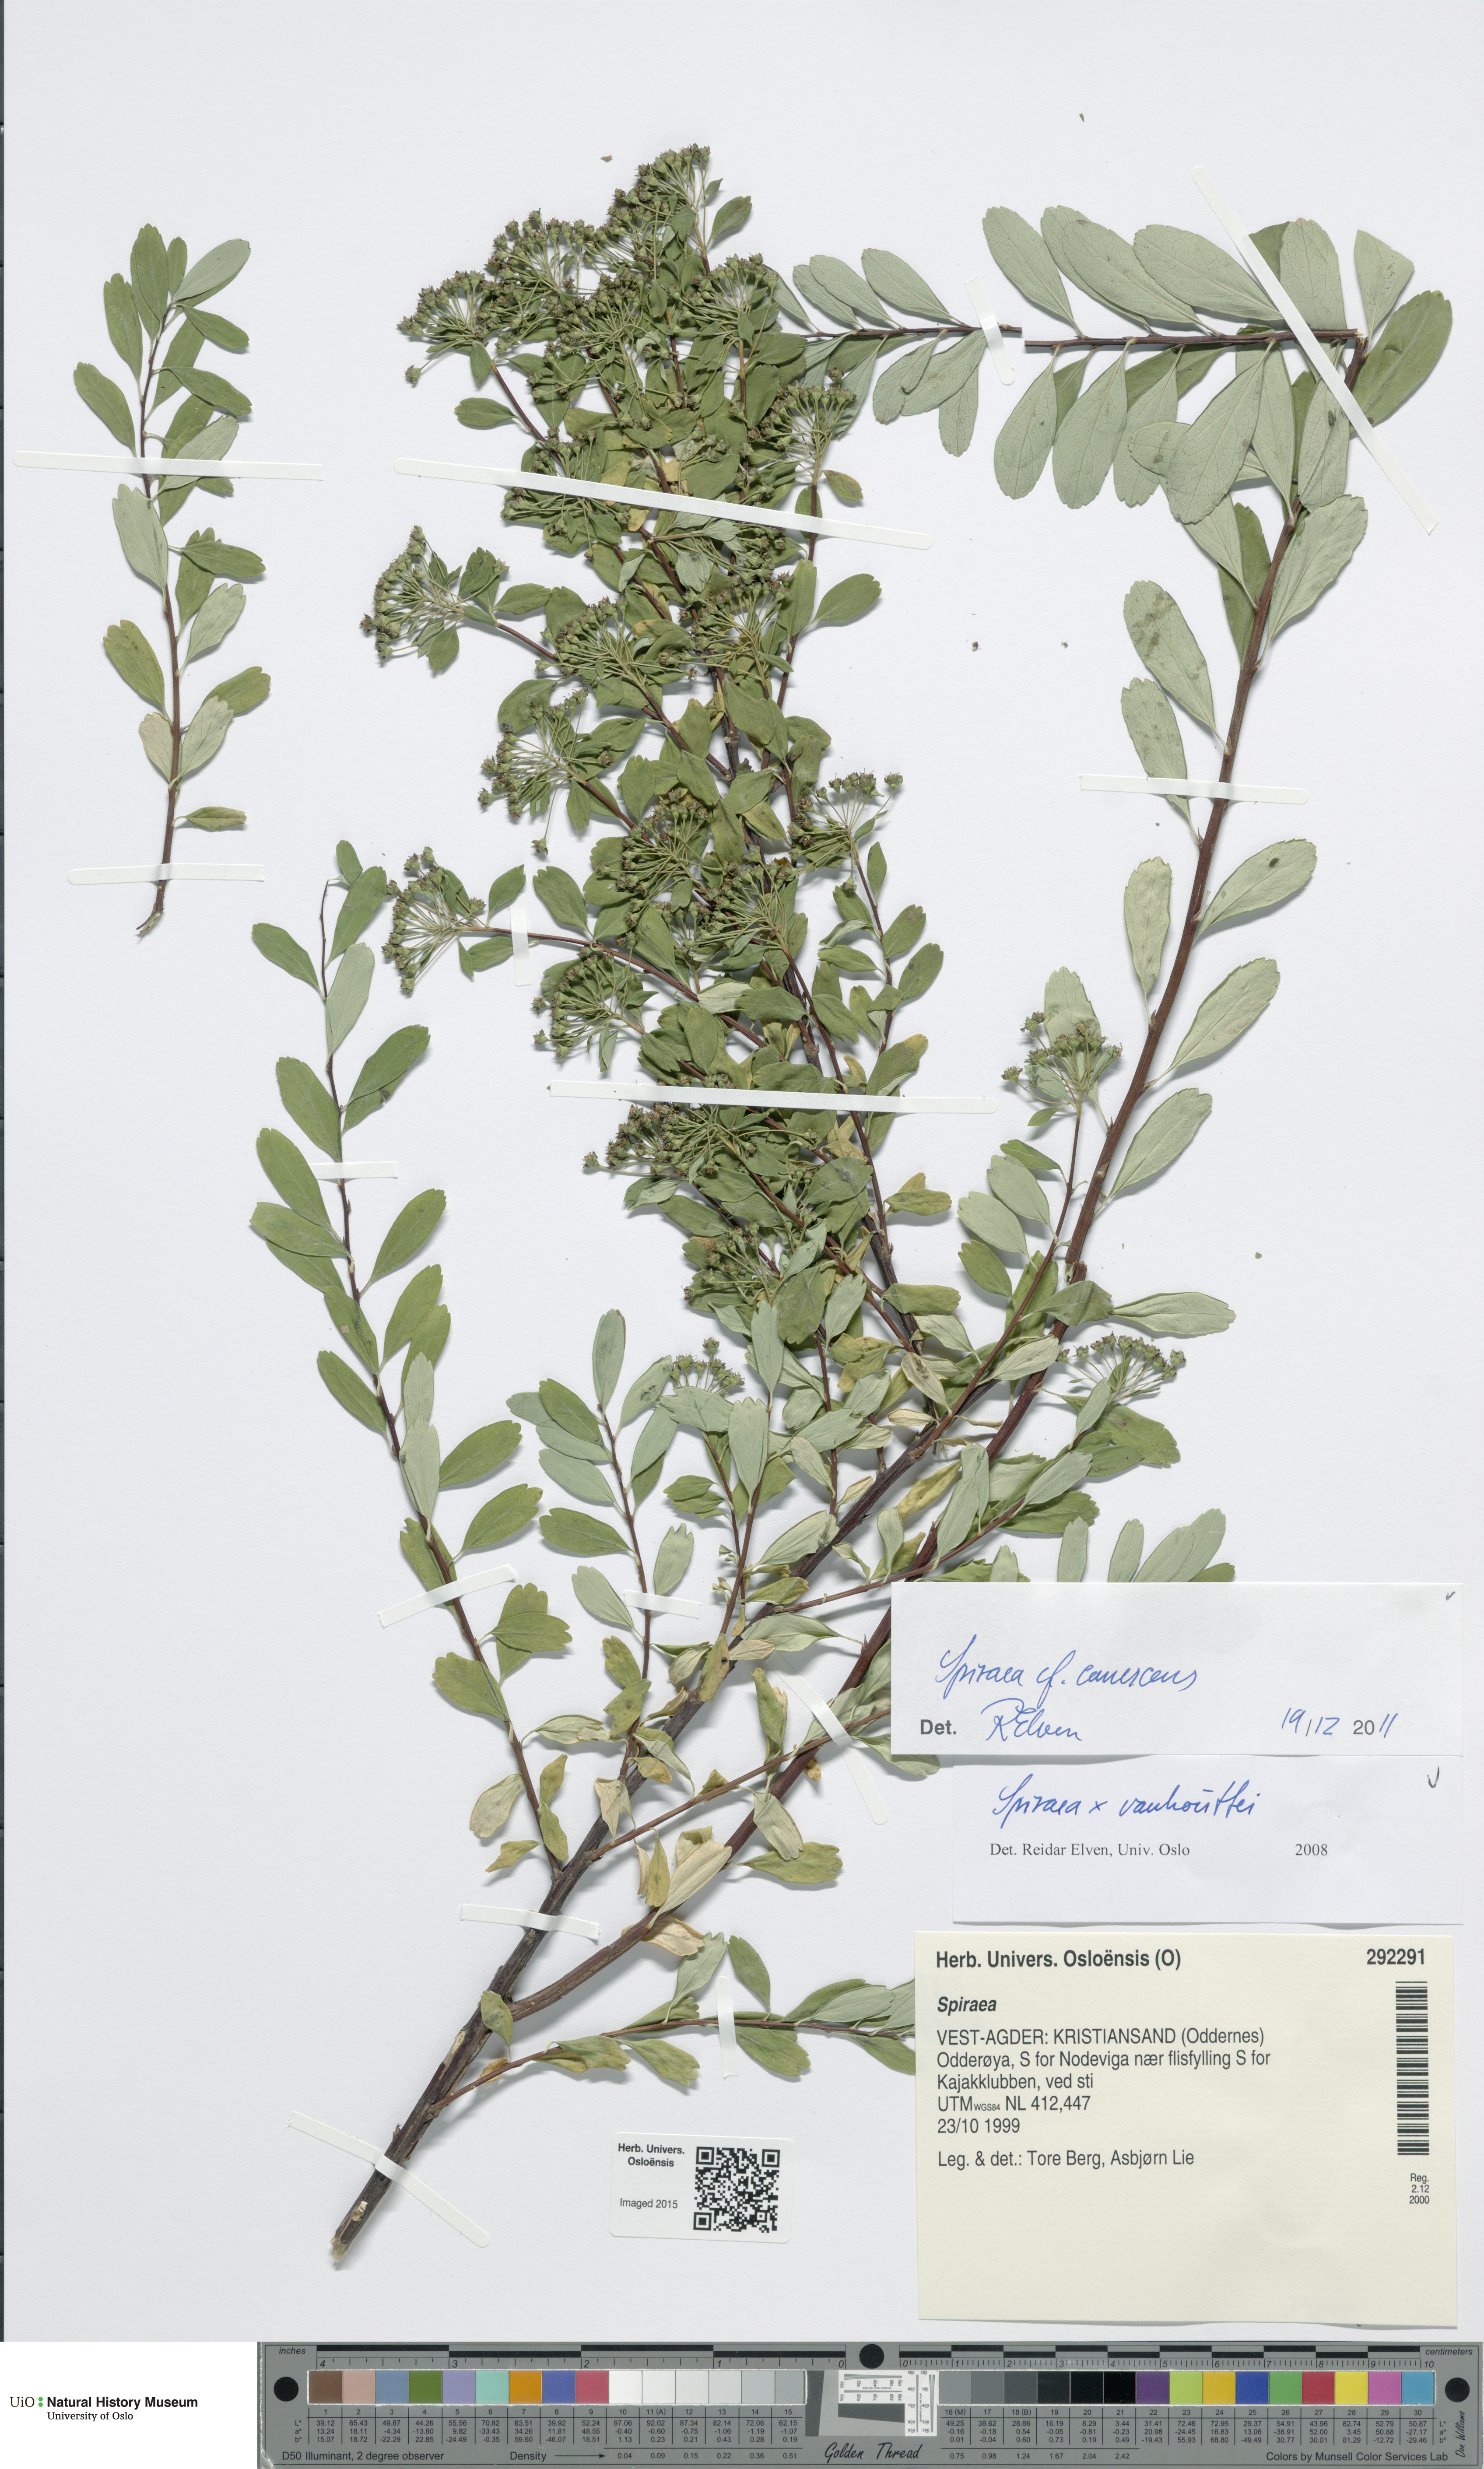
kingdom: Plantae
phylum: Tracheophyta
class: Magnoliopsida
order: Rosales
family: Rosaceae
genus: Spiraea
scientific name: Spiraea canescens
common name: Himalayan spiraea
